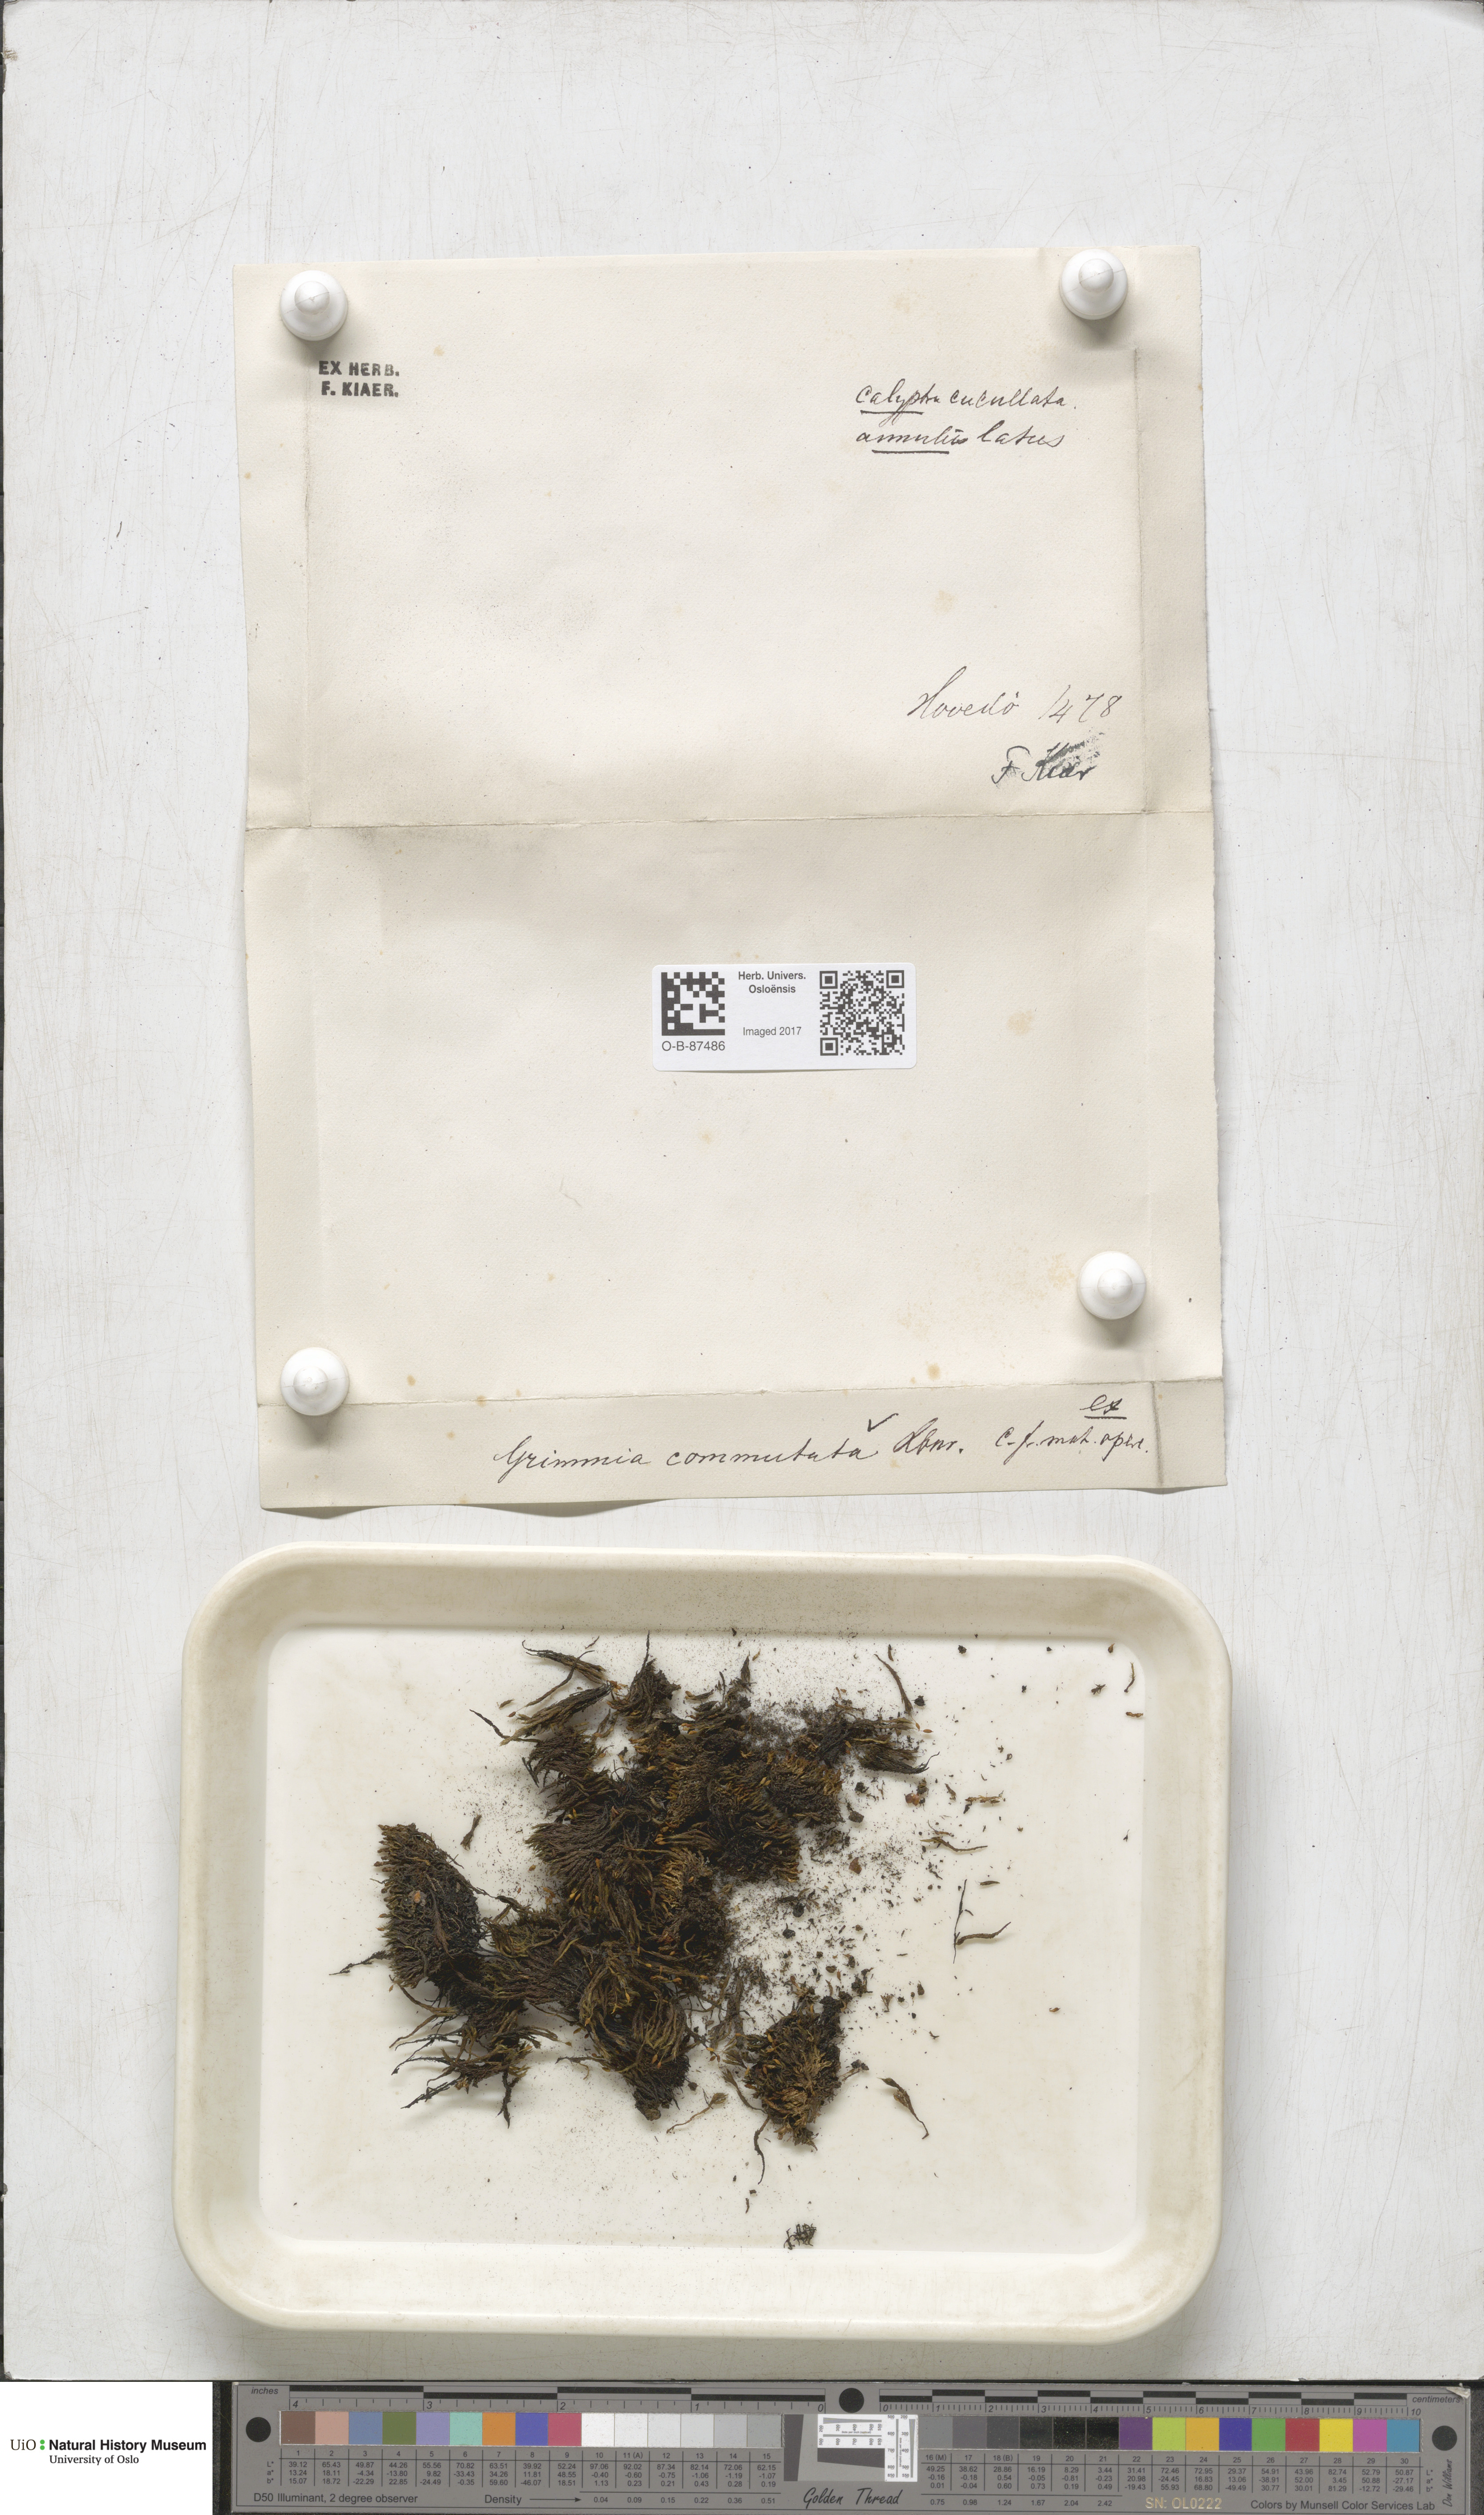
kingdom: Plantae
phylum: Bryophyta
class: Bryopsida
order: Grimmiales
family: Grimmiaceae
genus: Grimmia
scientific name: Grimmia ovalis
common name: Oval grimmia
